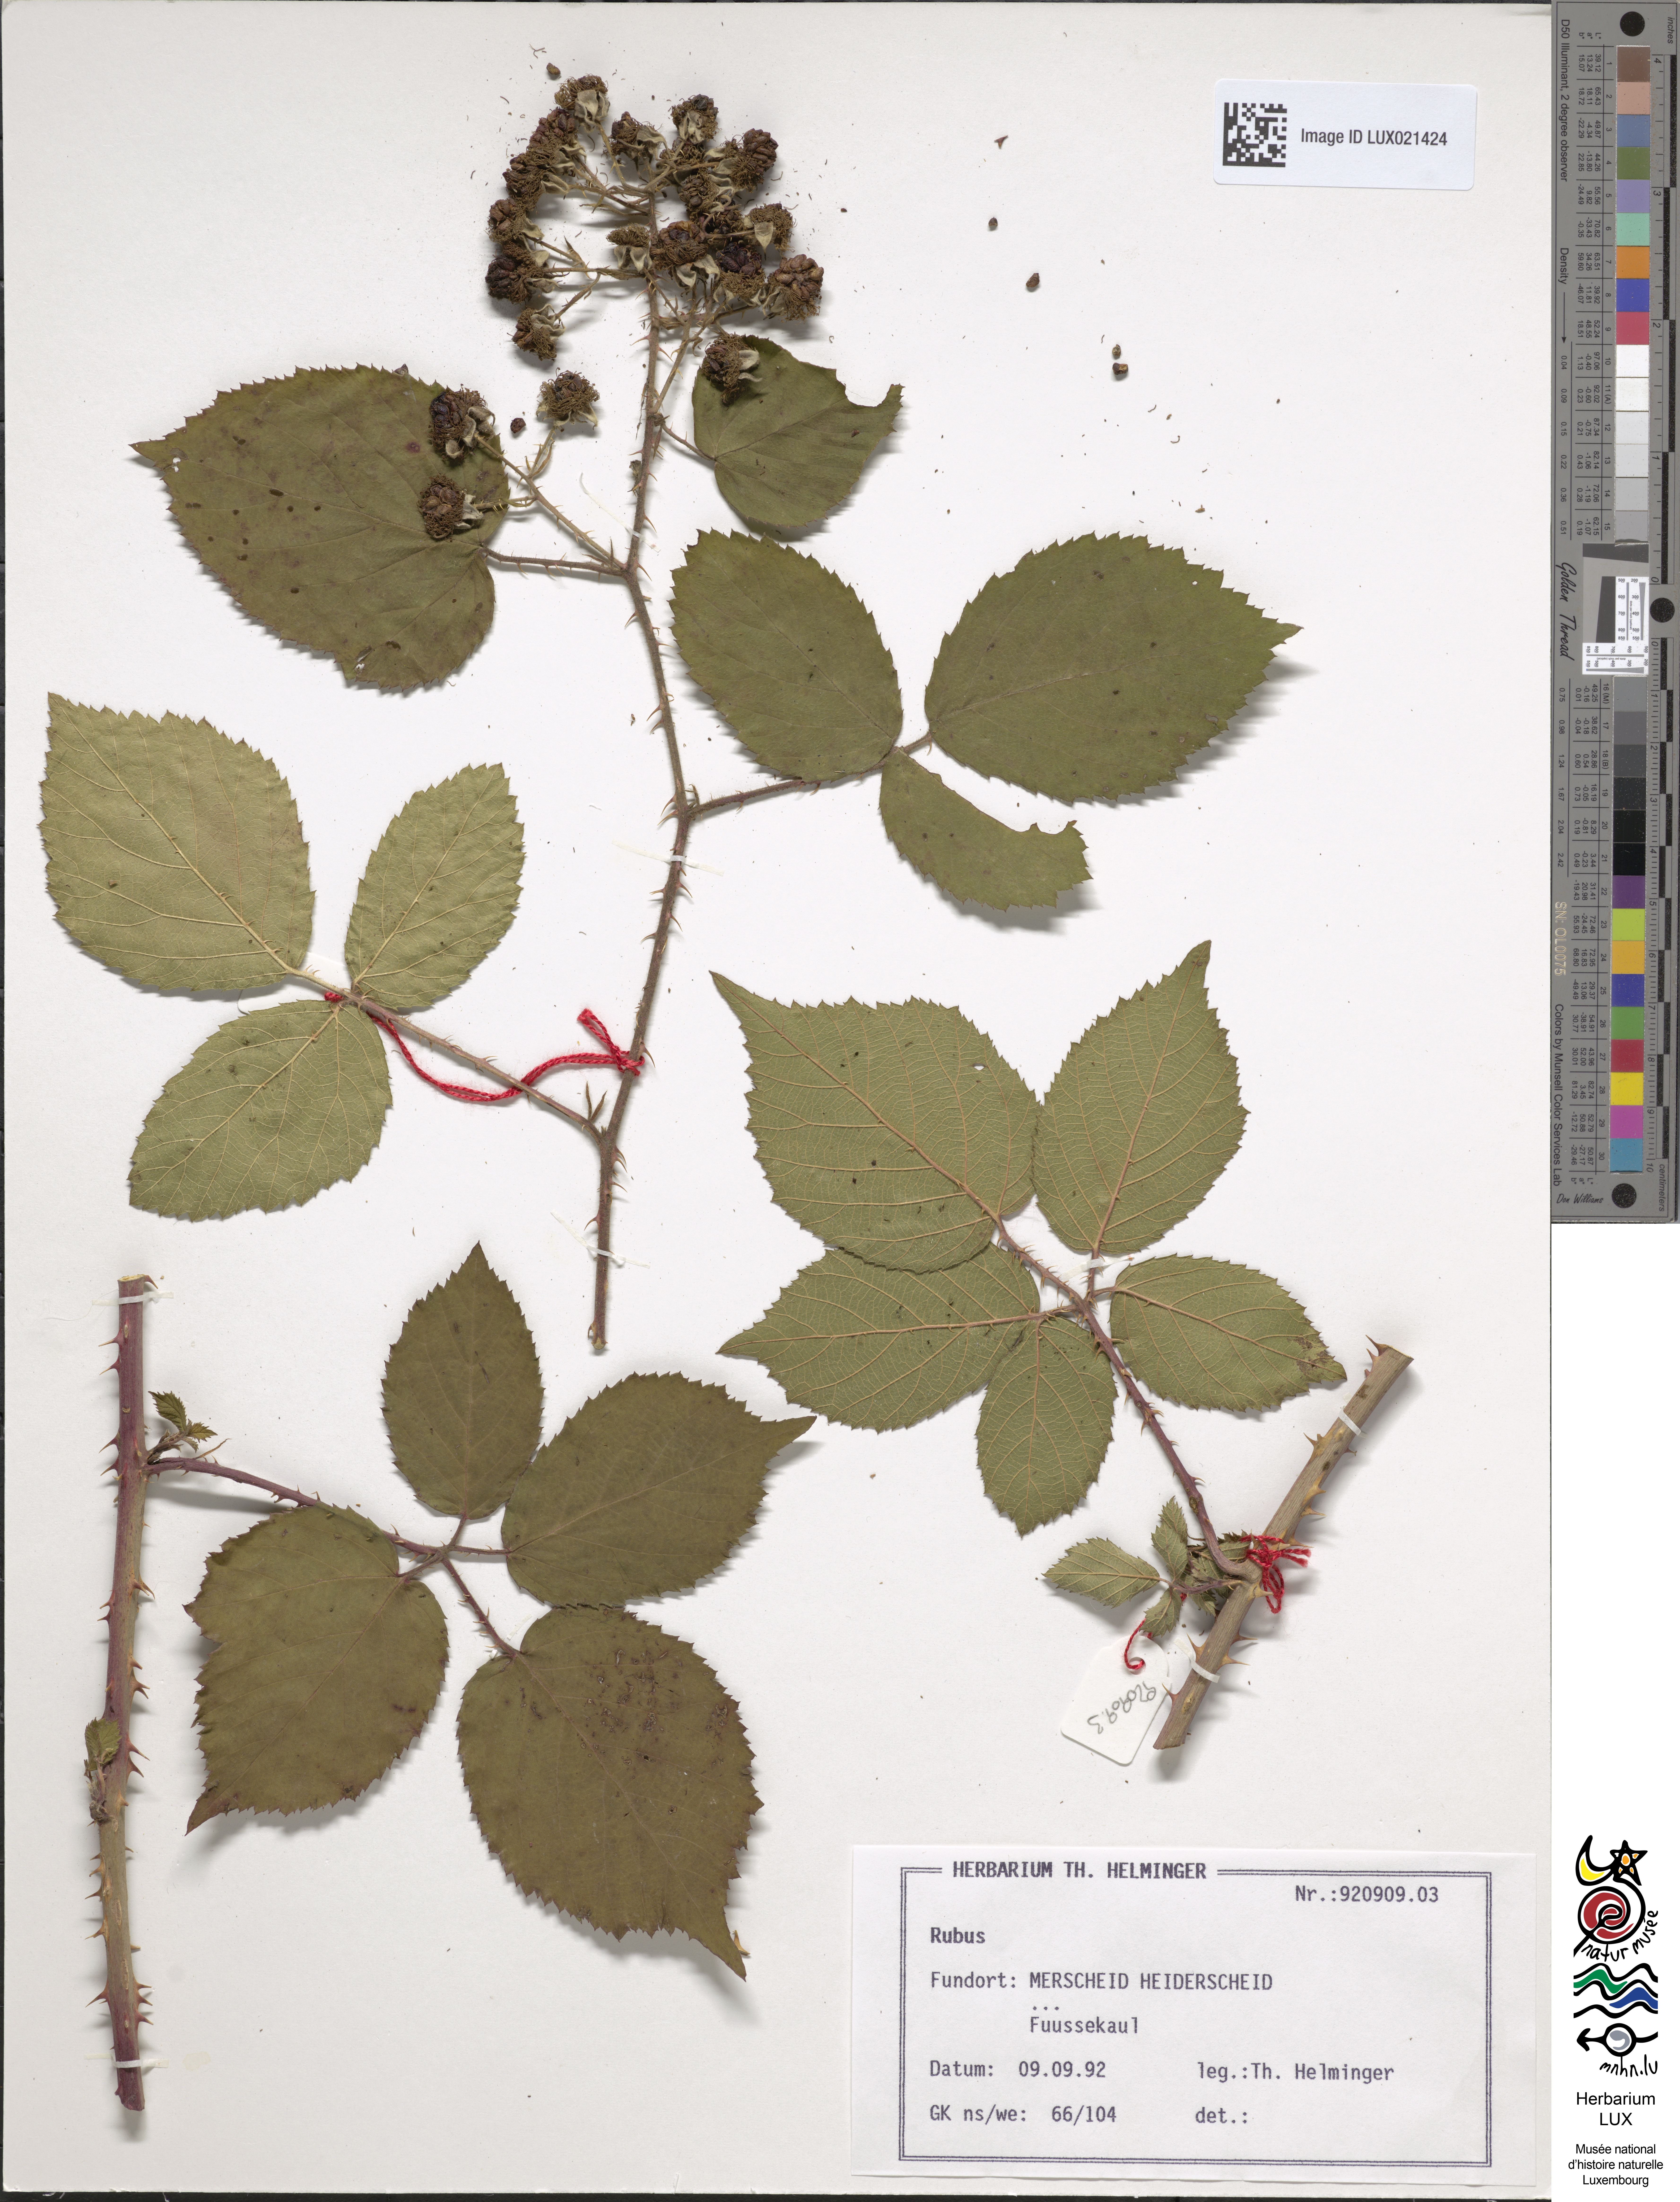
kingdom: Plantae
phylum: Tracheophyta
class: Magnoliopsida
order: Rosales
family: Rosaceae
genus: Rubus
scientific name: Rubus
